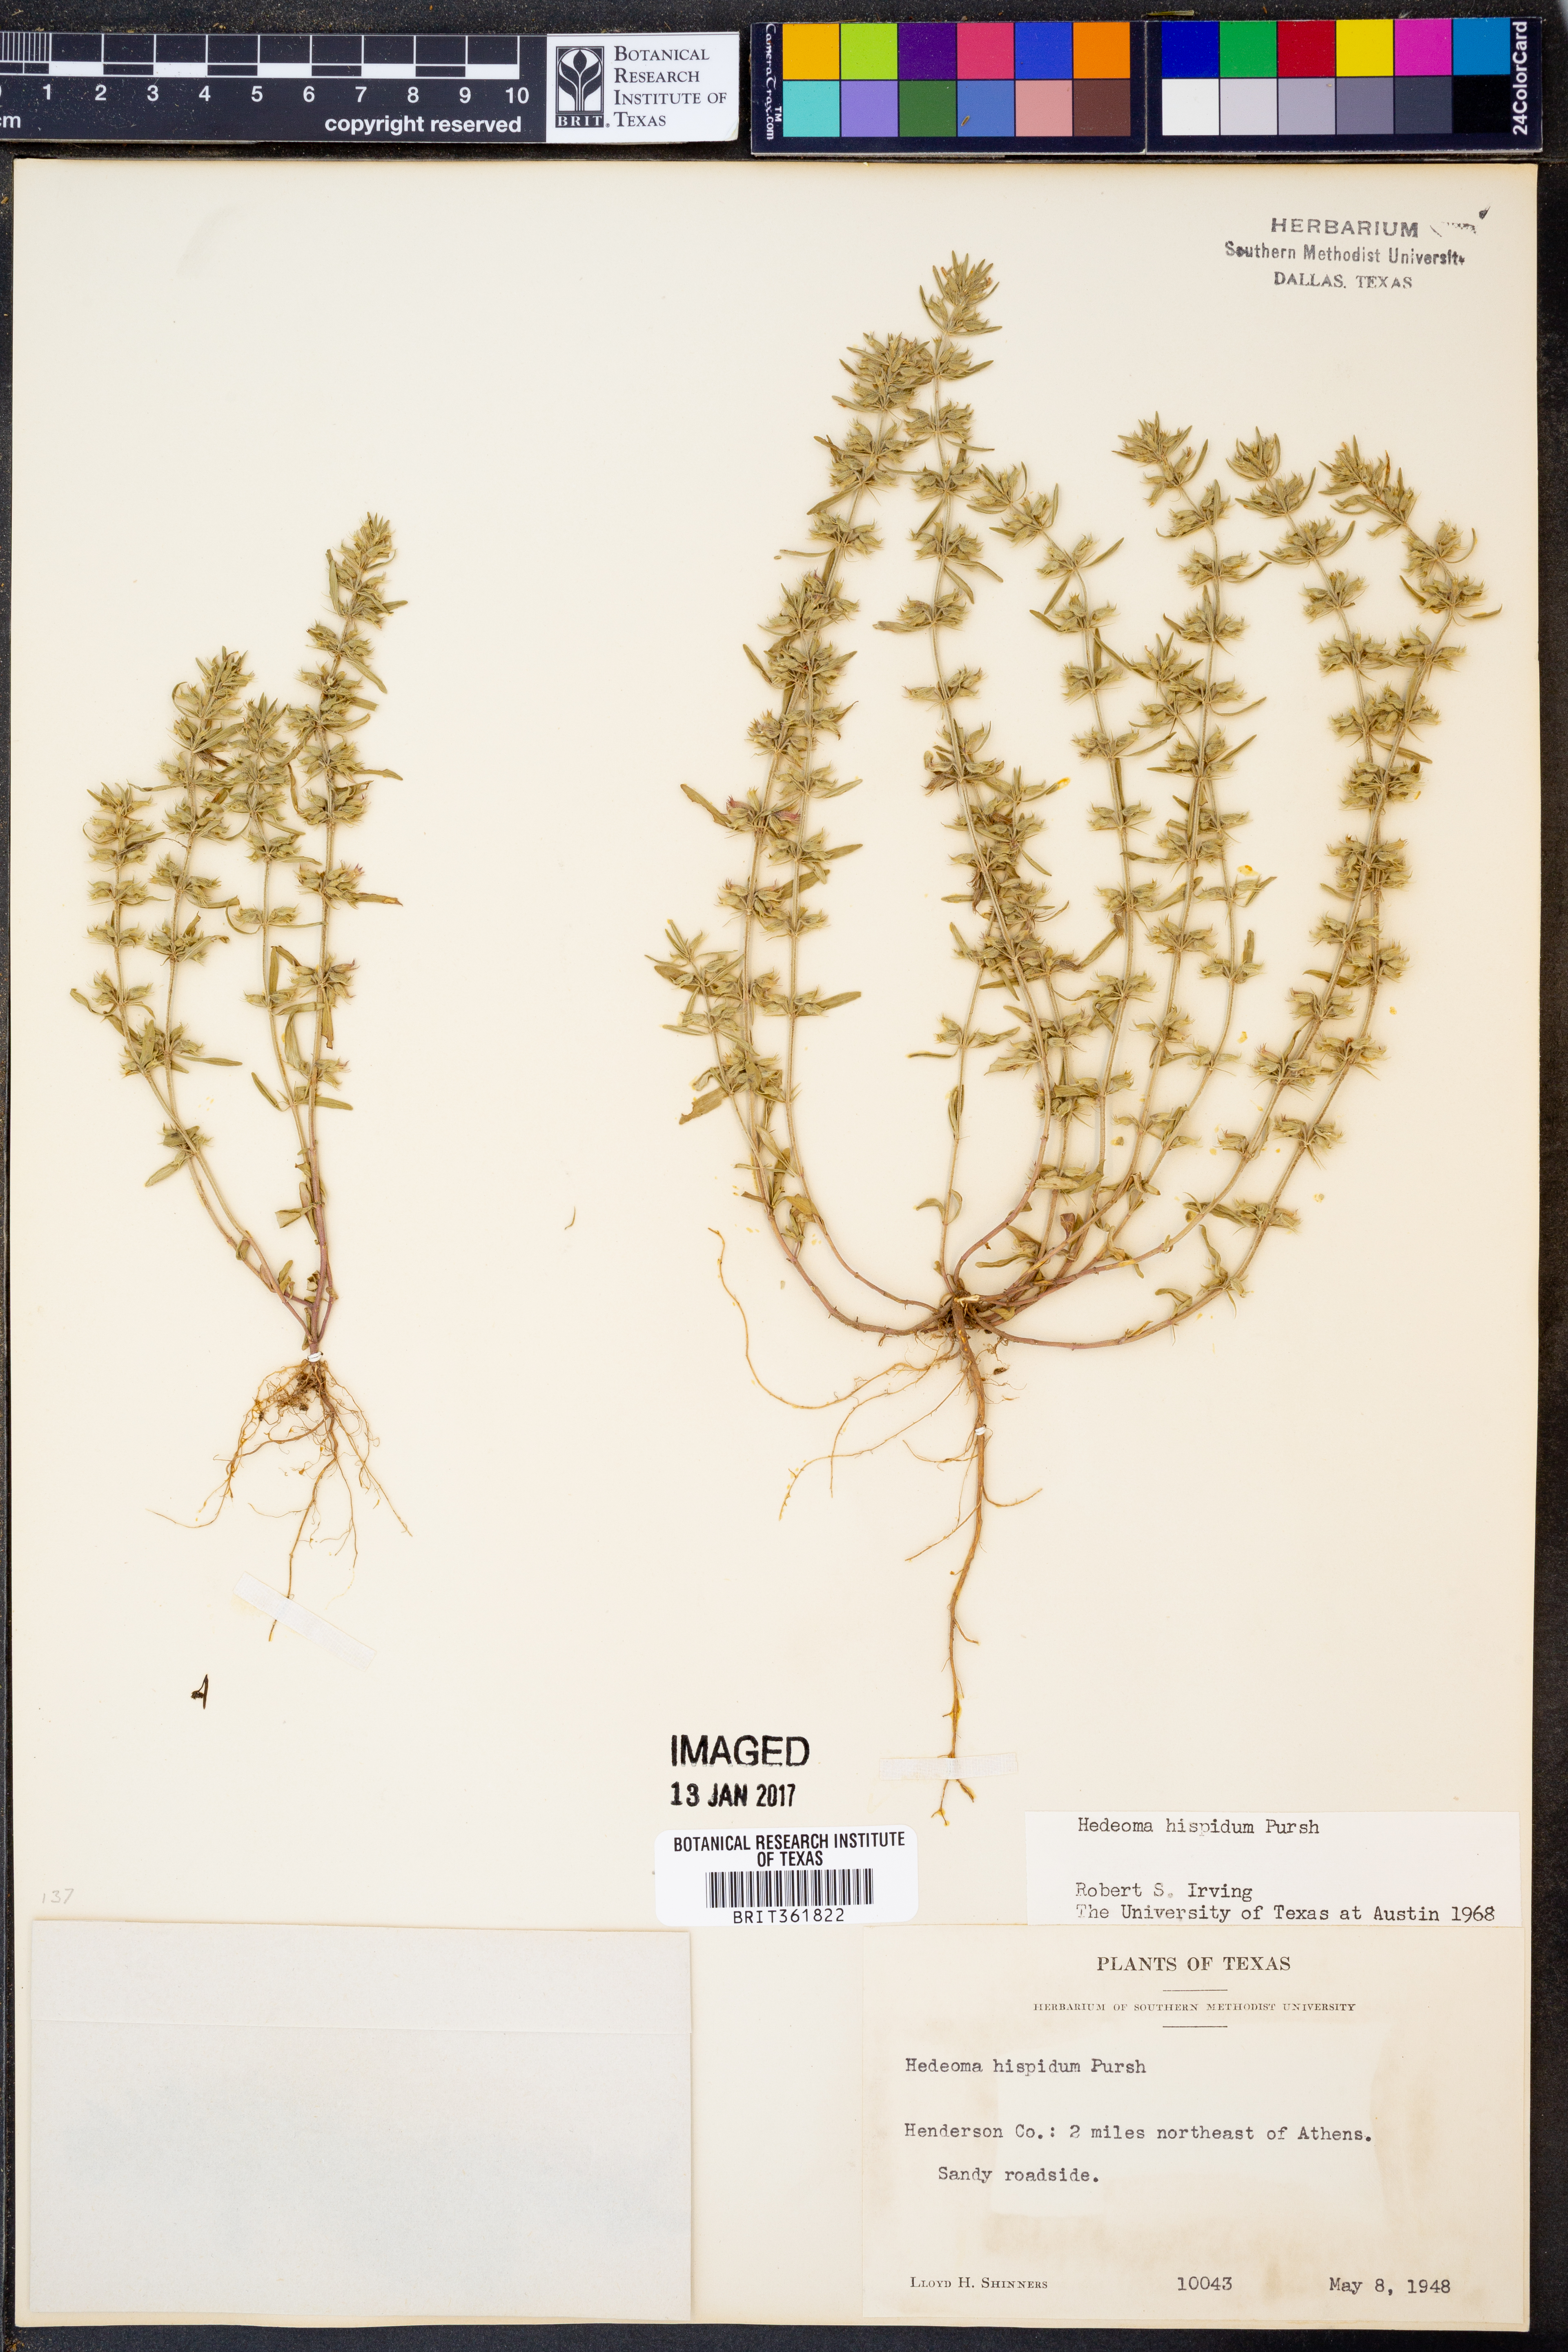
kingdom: Plantae
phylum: Tracheophyta
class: Magnoliopsida
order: Lamiales
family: Lamiaceae
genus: Hedeoma
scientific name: Hedeoma hispida
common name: Mock pennyroyal
